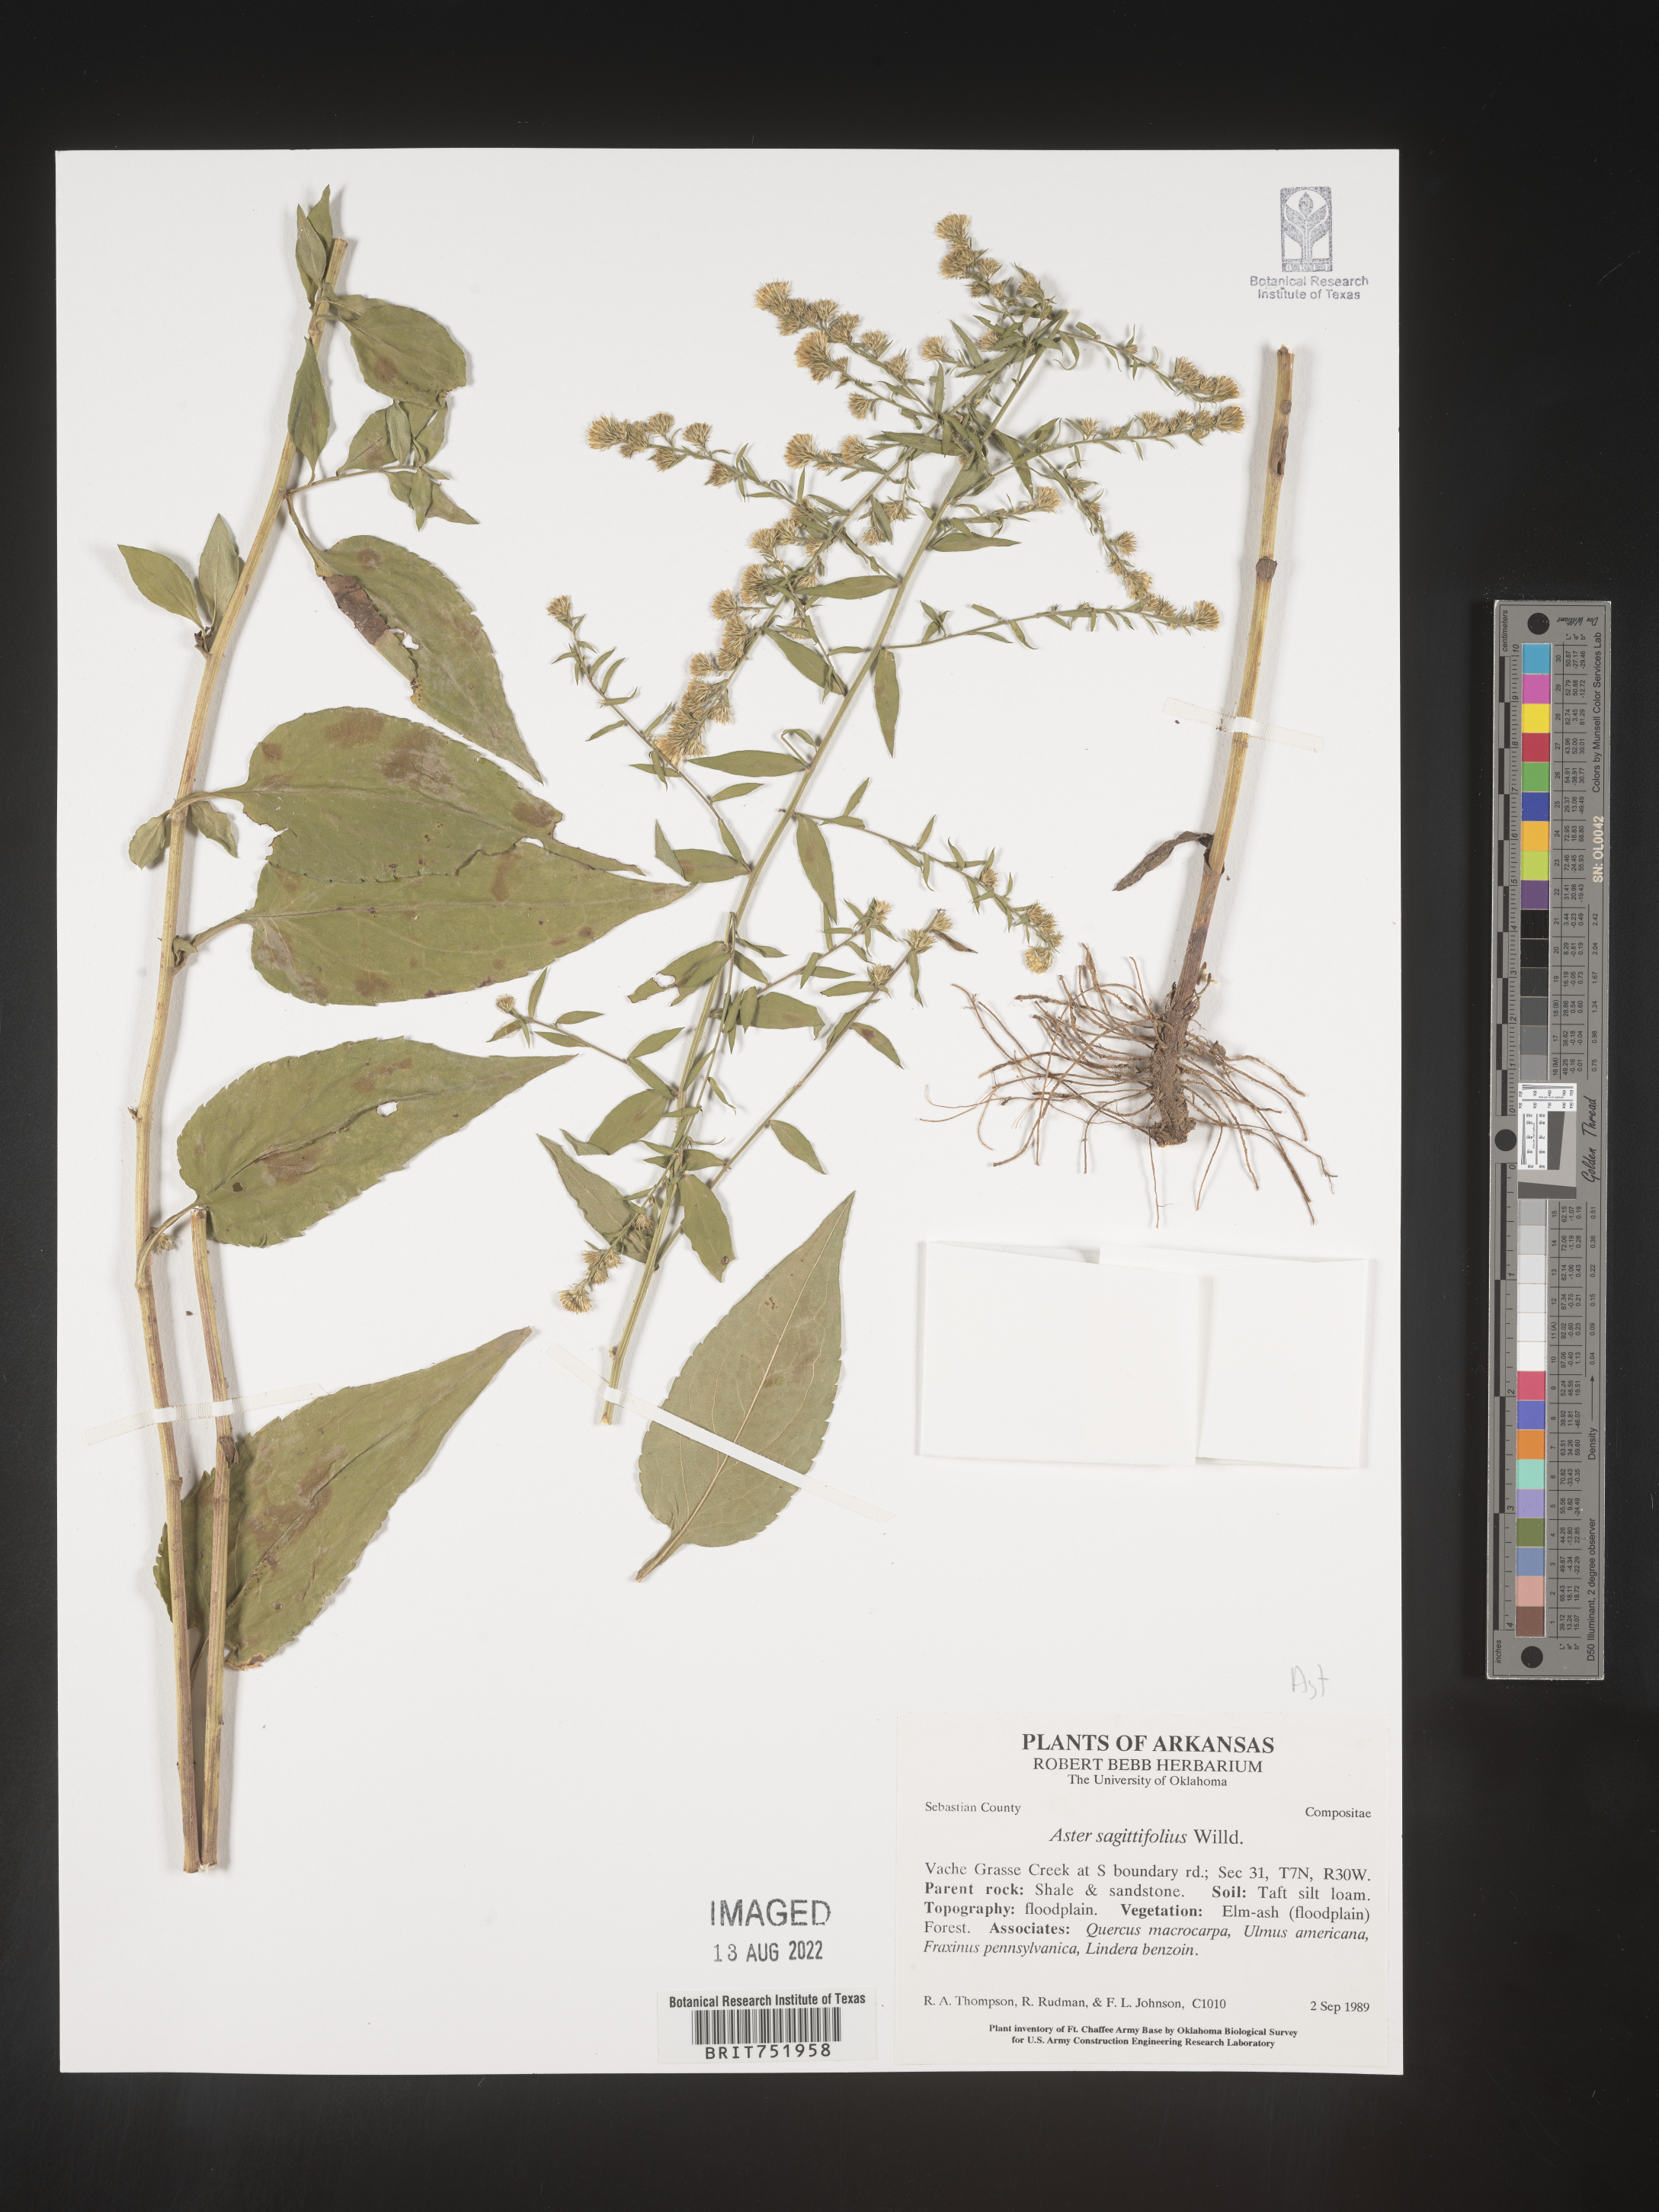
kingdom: Plantae
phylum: Tracheophyta
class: Magnoliopsida
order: Asterales
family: Asteraceae
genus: Symphyotrichum
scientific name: Symphyotrichum drummondii
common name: Drummond's aster
